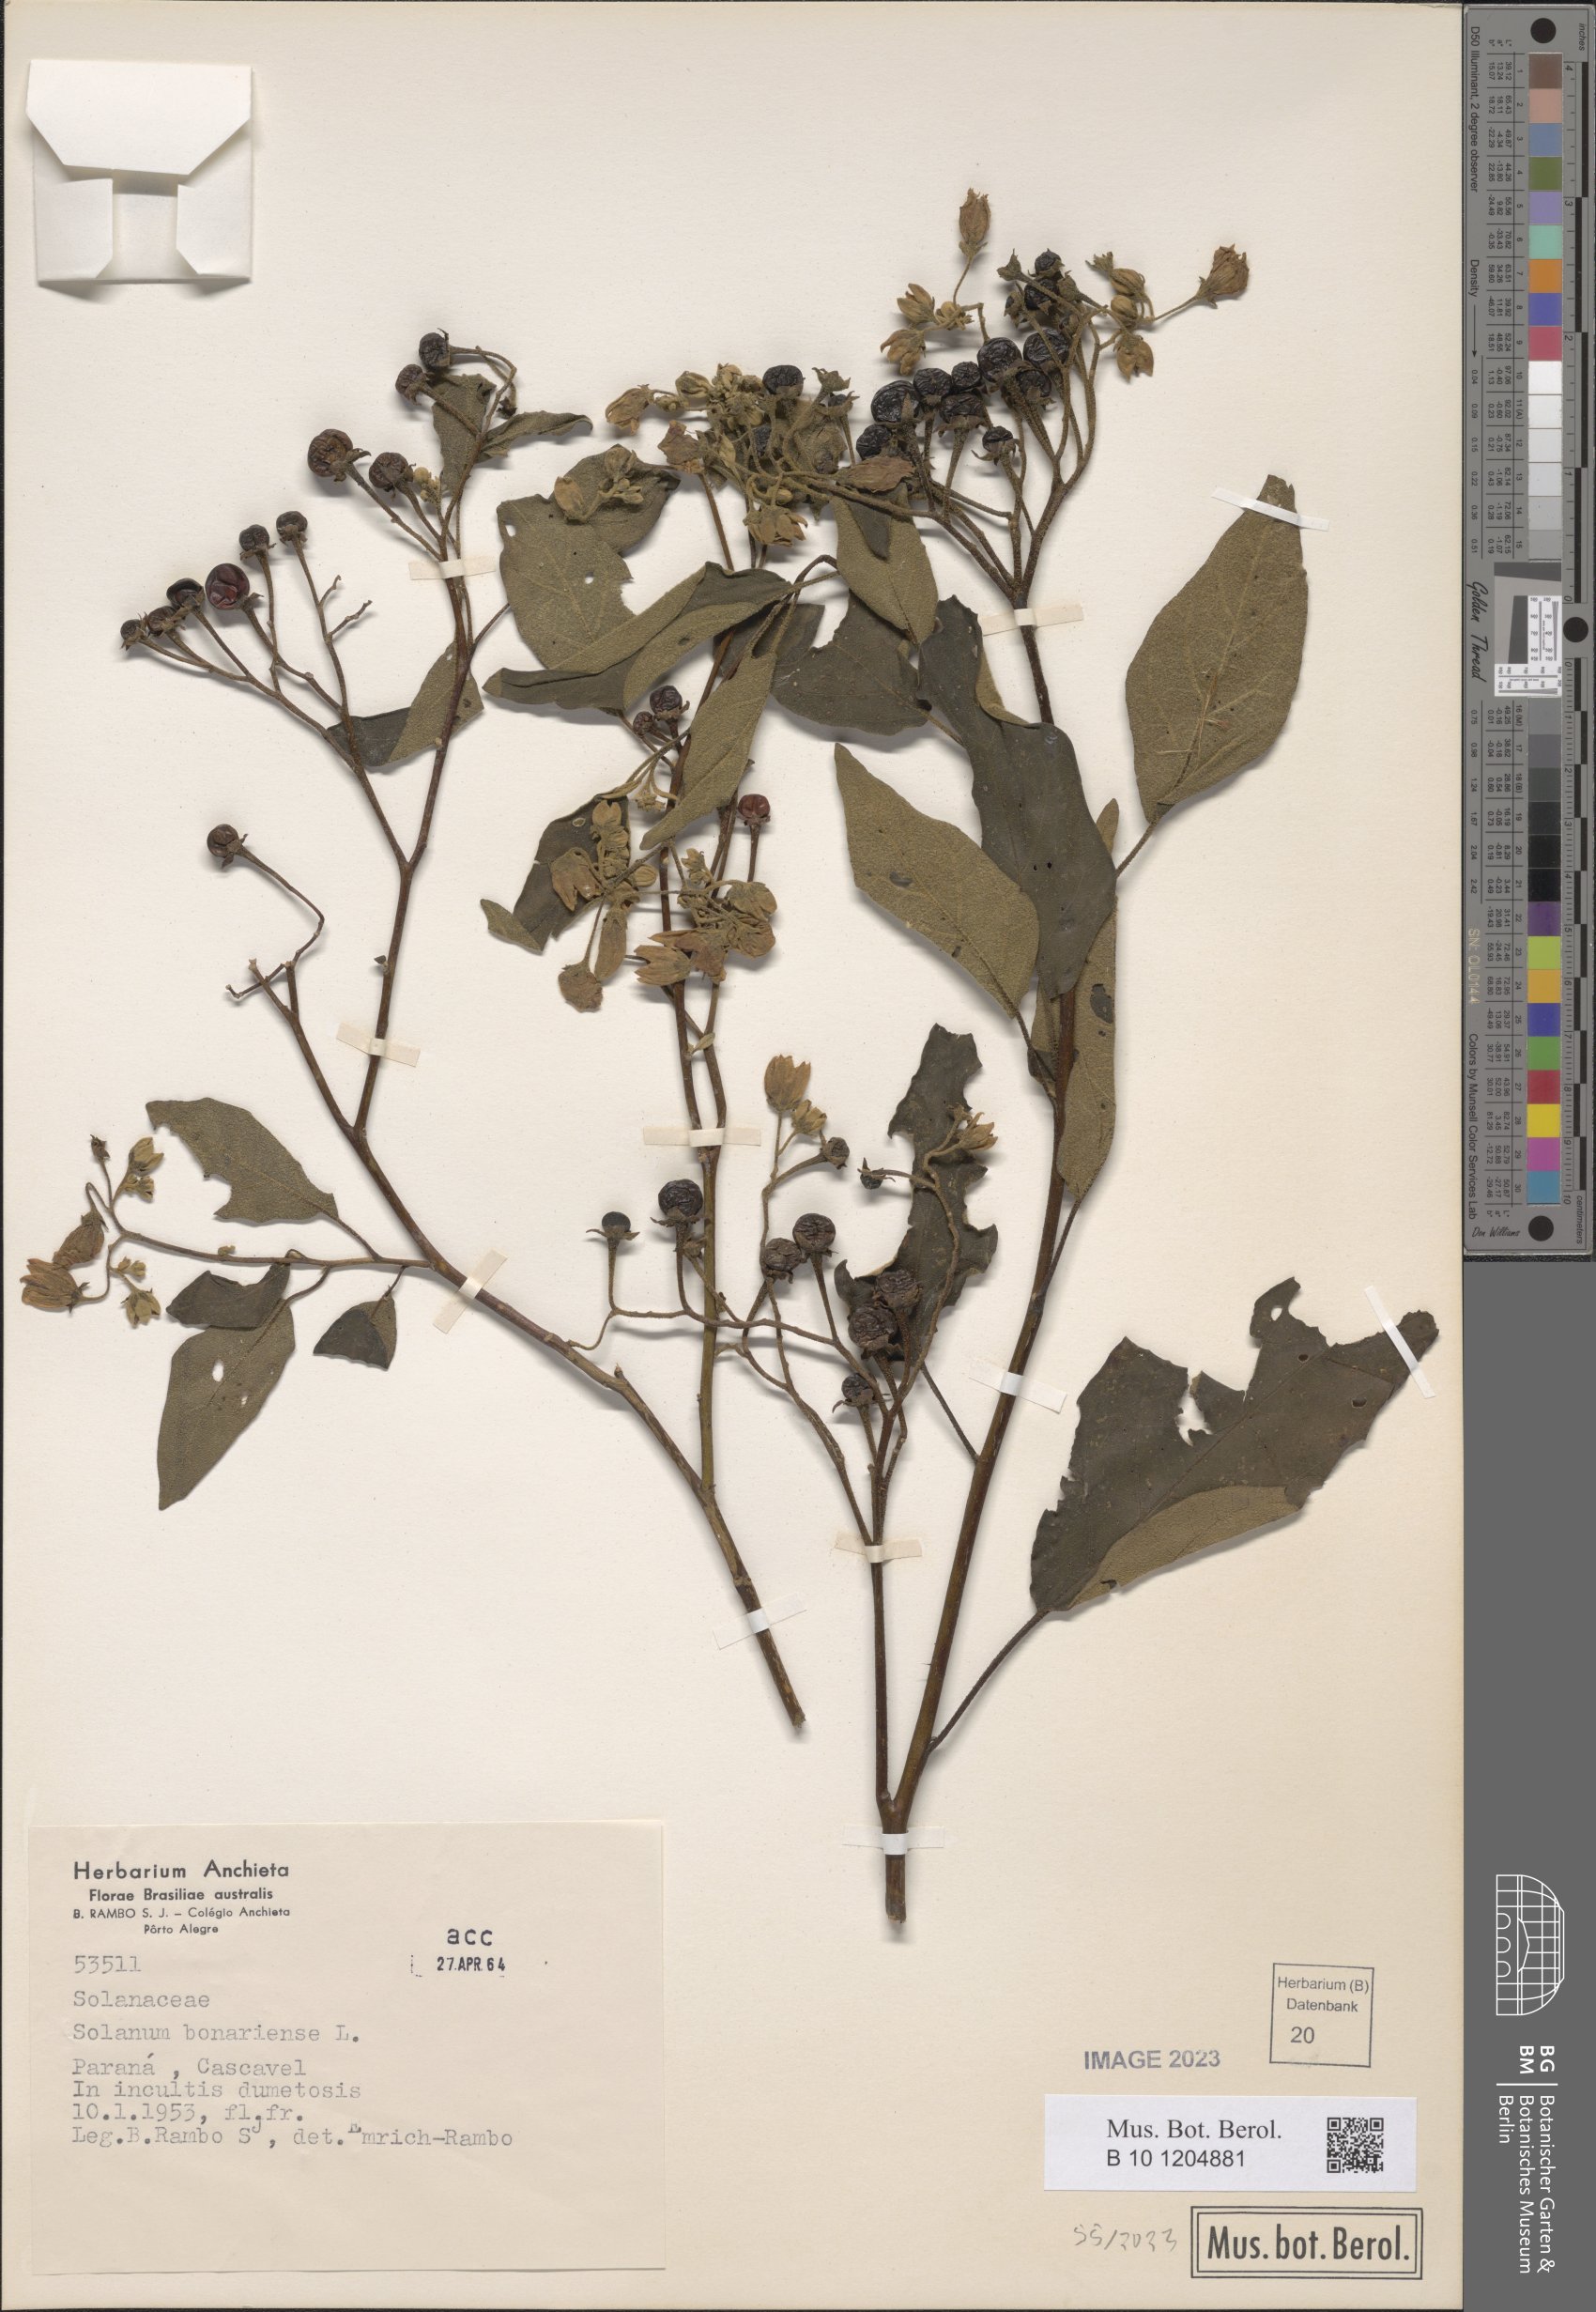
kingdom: Plantae
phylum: Tracheophyta
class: Magnoliopsida
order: Solanales
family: Solanaceae
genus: Solanum
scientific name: Solanum bonariense
